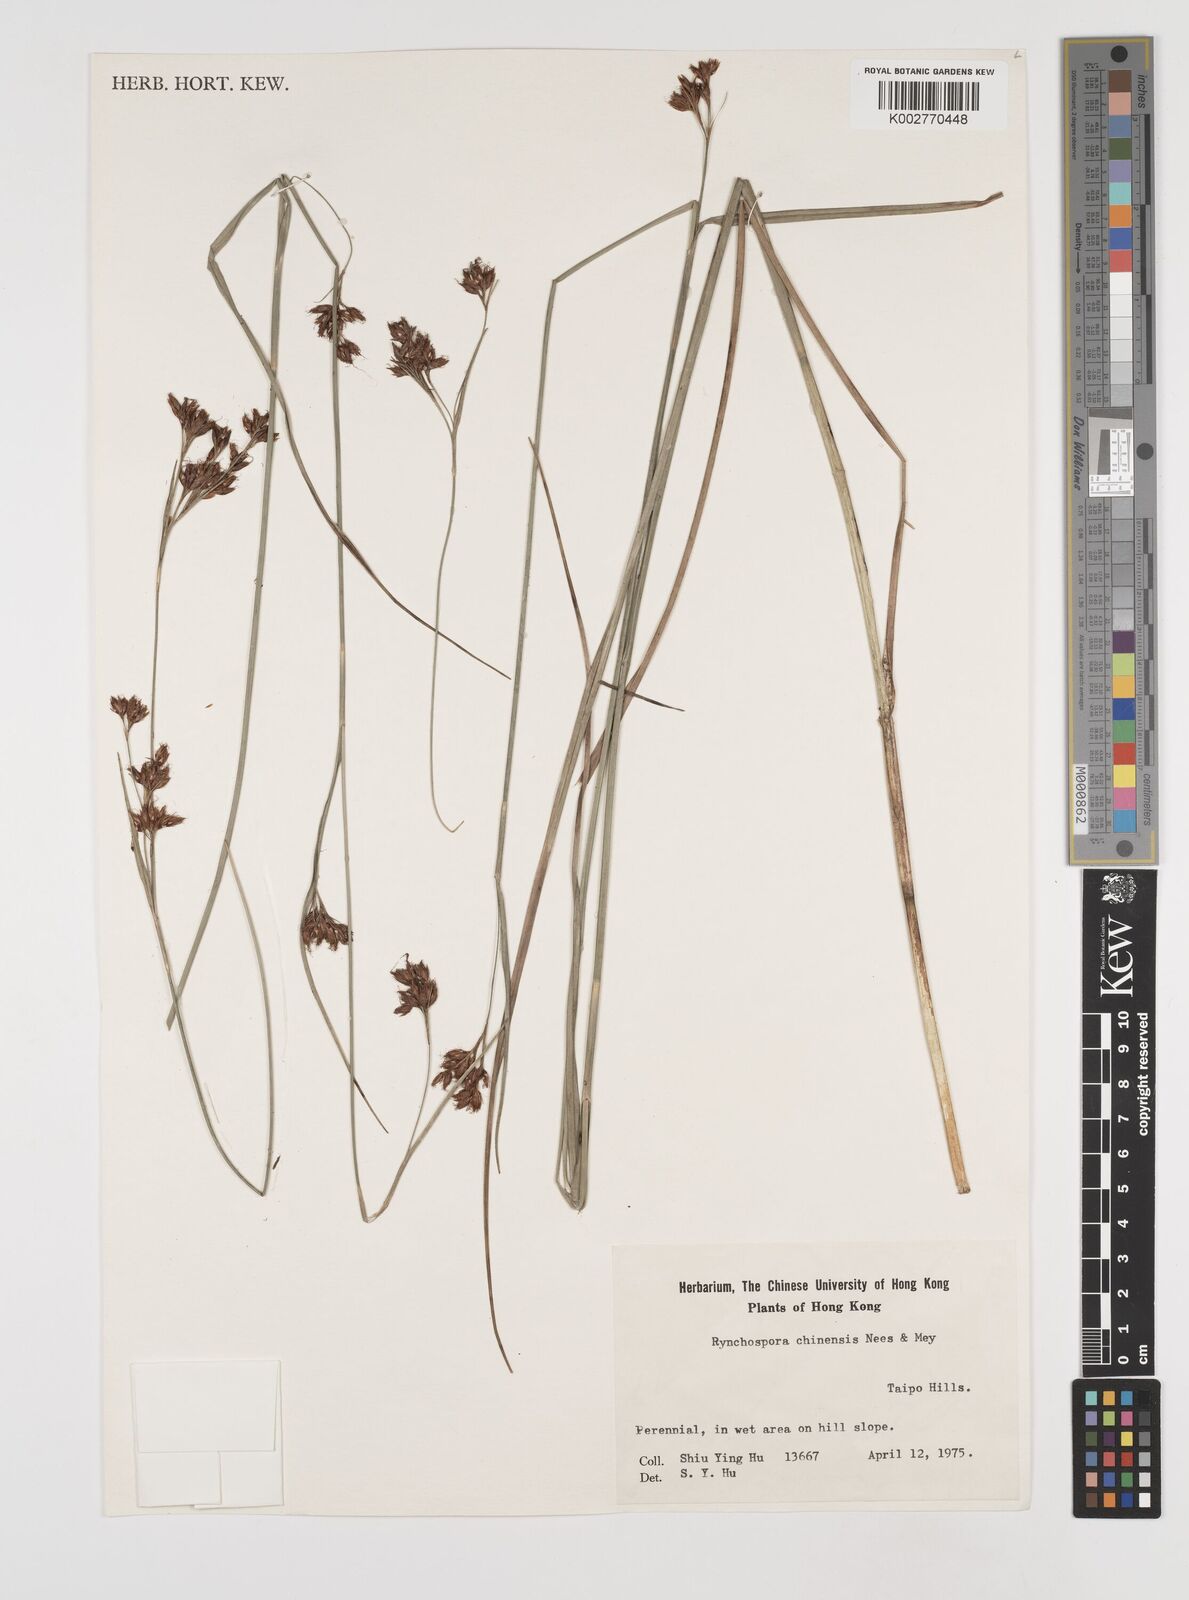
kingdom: Plantae
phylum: Tracheophyta
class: Liliopsida
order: Poales
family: Cyperaceae
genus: Rhynchospora
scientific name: Rhynchospora
